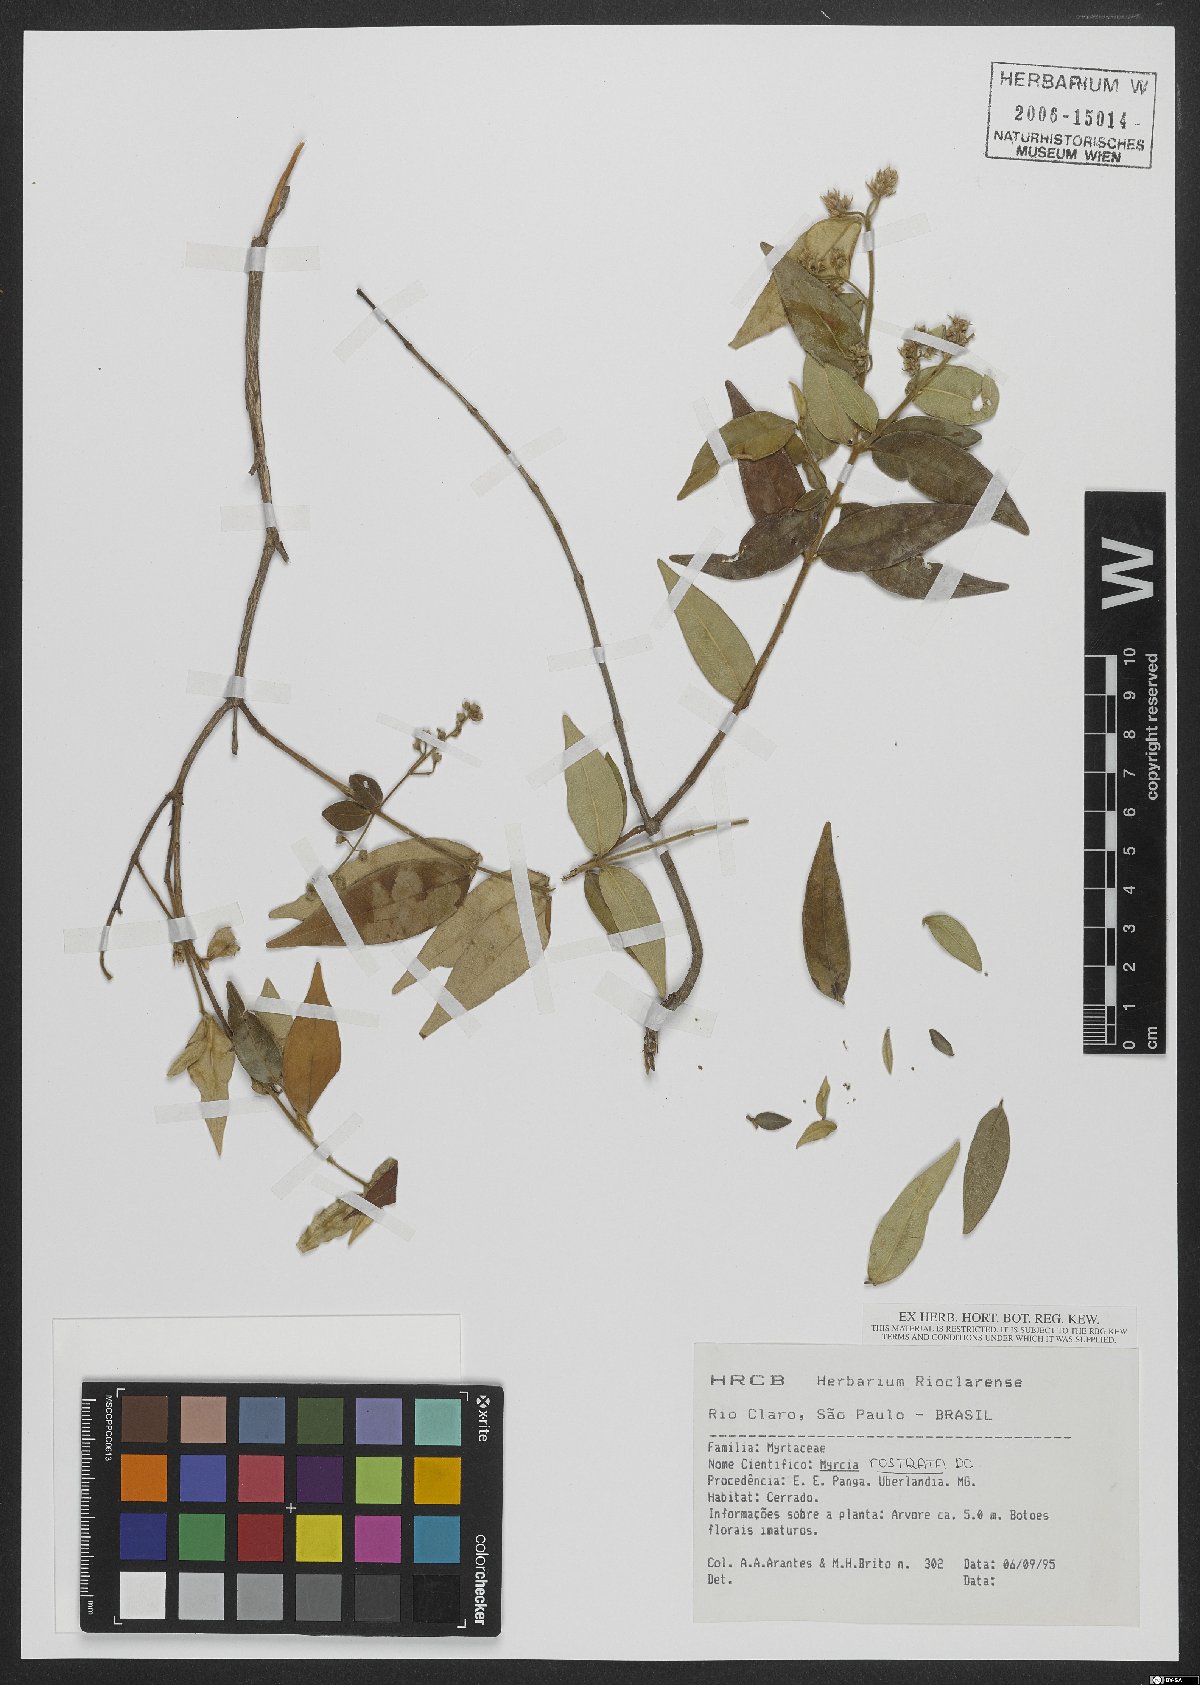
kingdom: Plantae
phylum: Tracheophyta
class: Magnoliopsida
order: Myrtales
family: Myrtaceae
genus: Myrcia
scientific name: Myrcia splendens
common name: Surinam cherry
